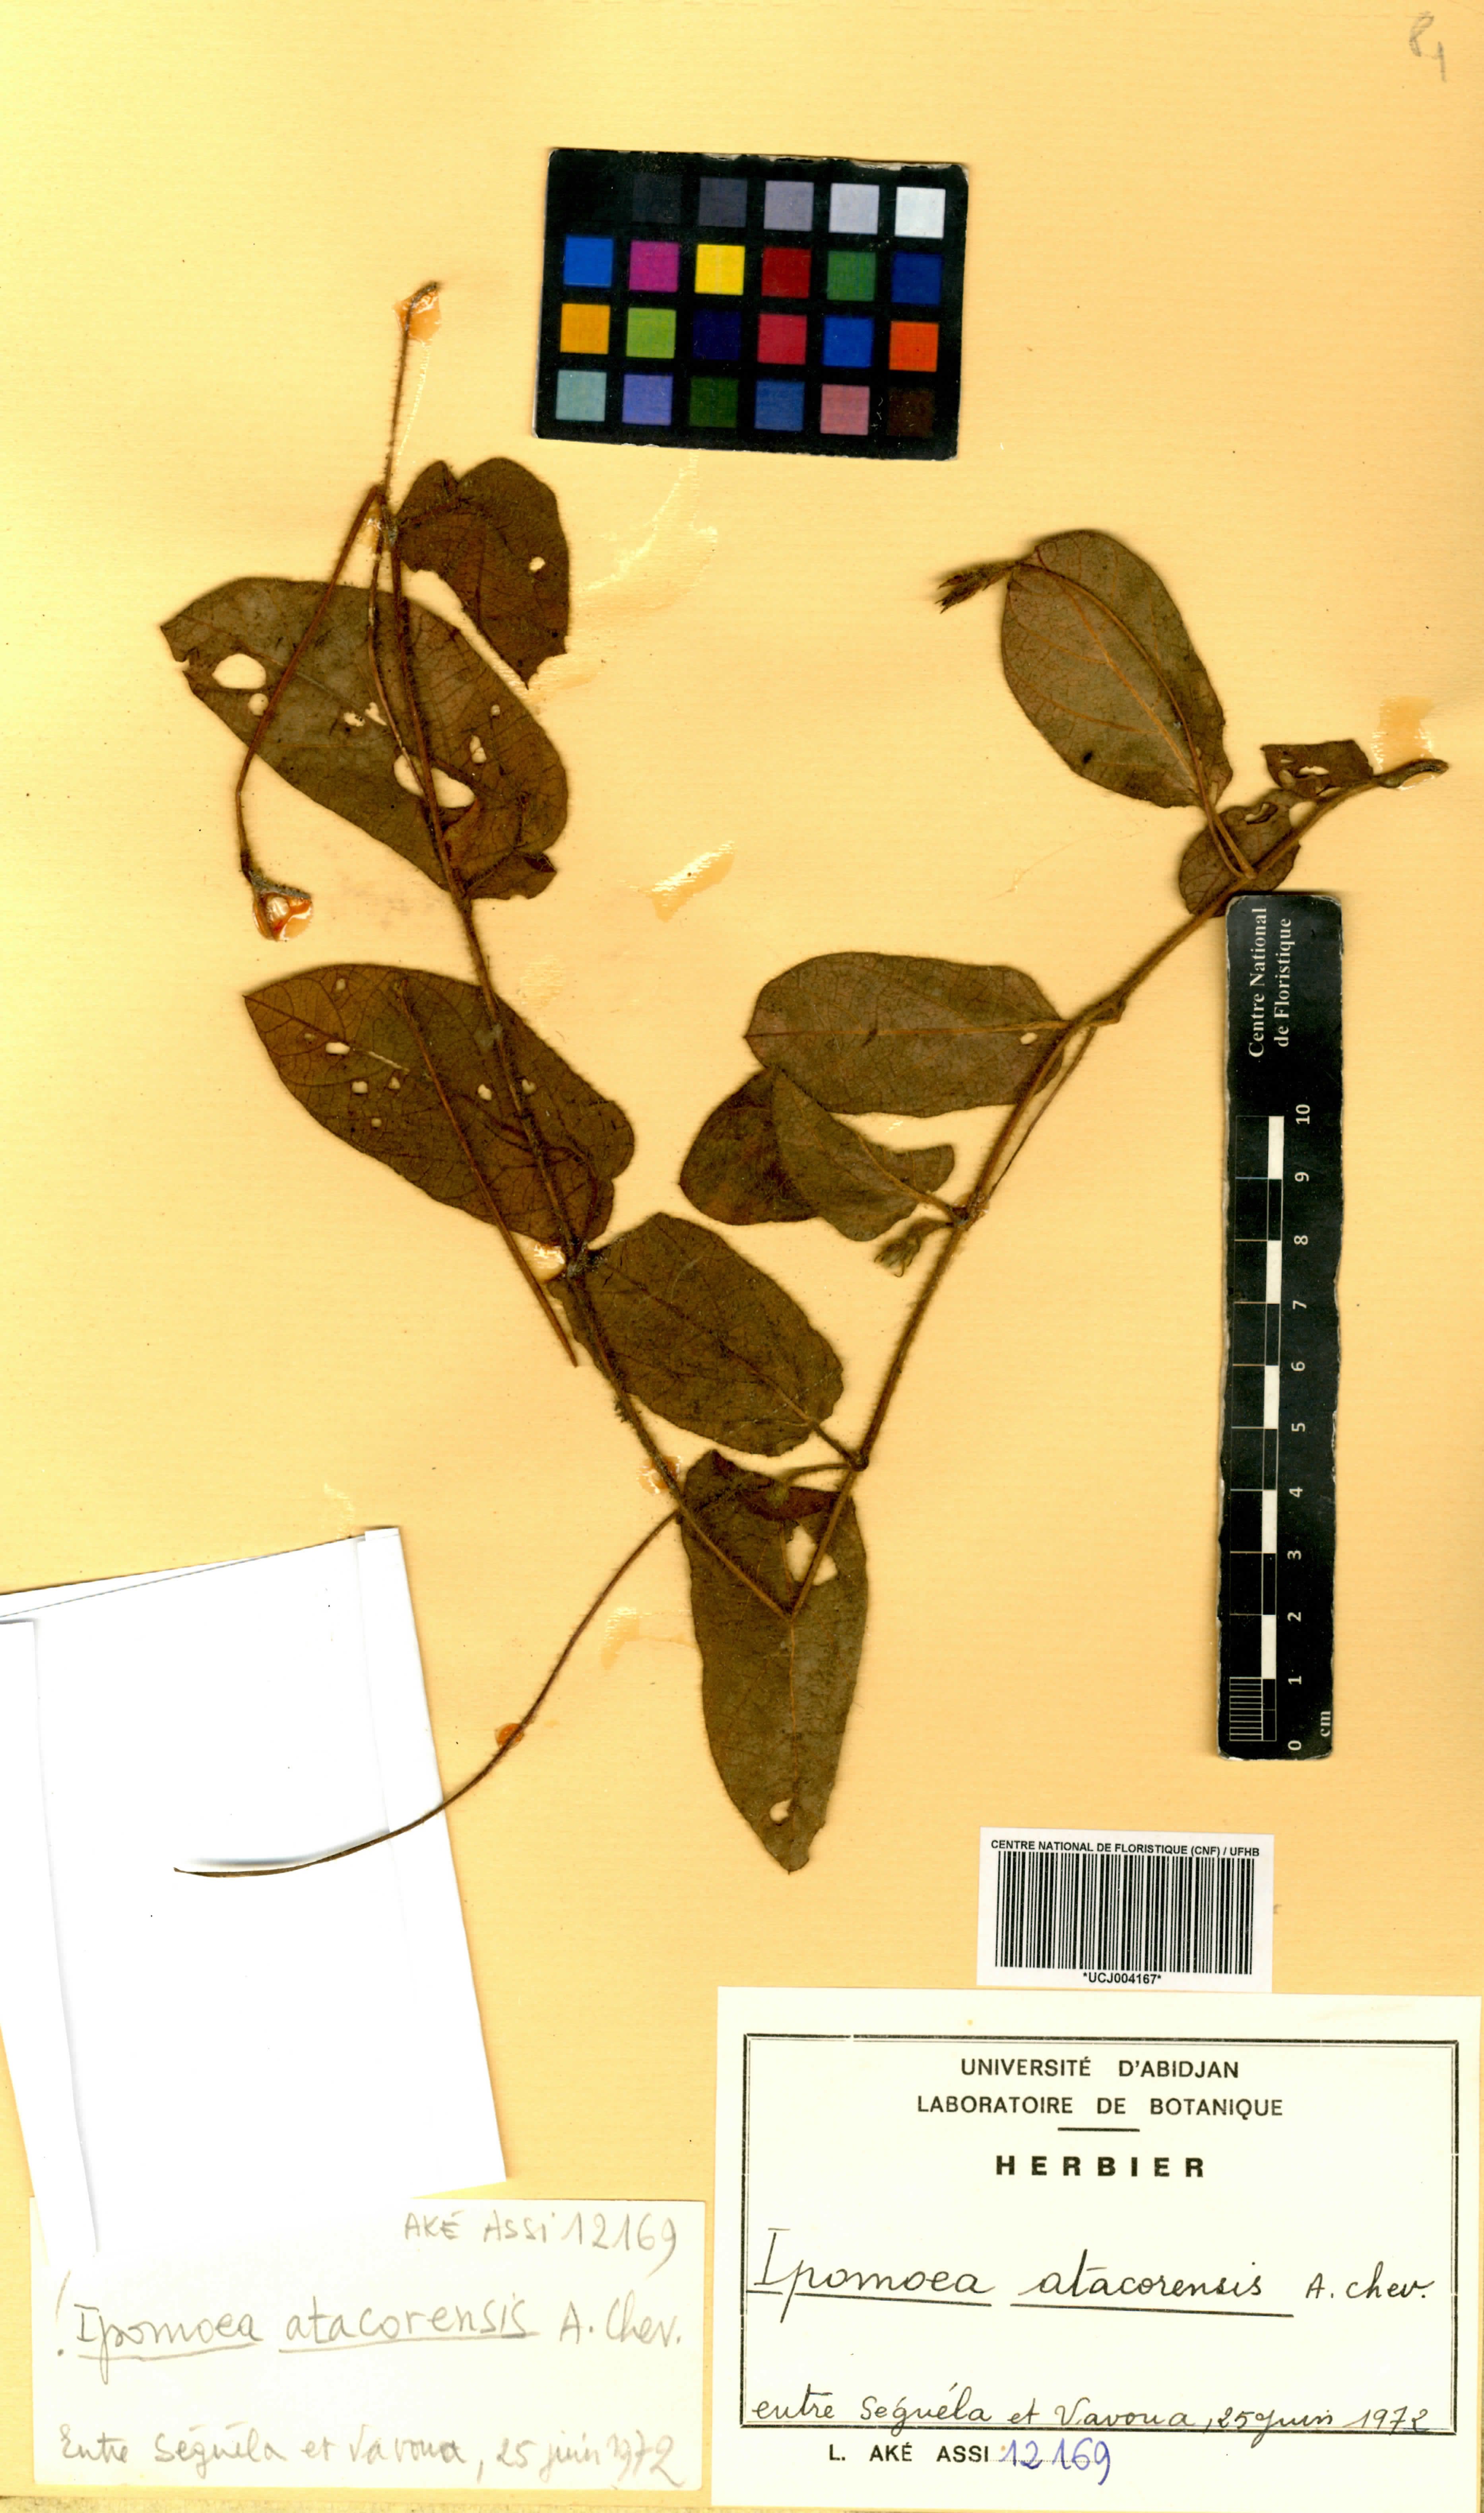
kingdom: Plantae
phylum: Tracheophyta
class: Magnoliopsida
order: Solanales
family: Convolvulaceae
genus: Ipomoea
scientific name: Ipomoea fulvicaulis
